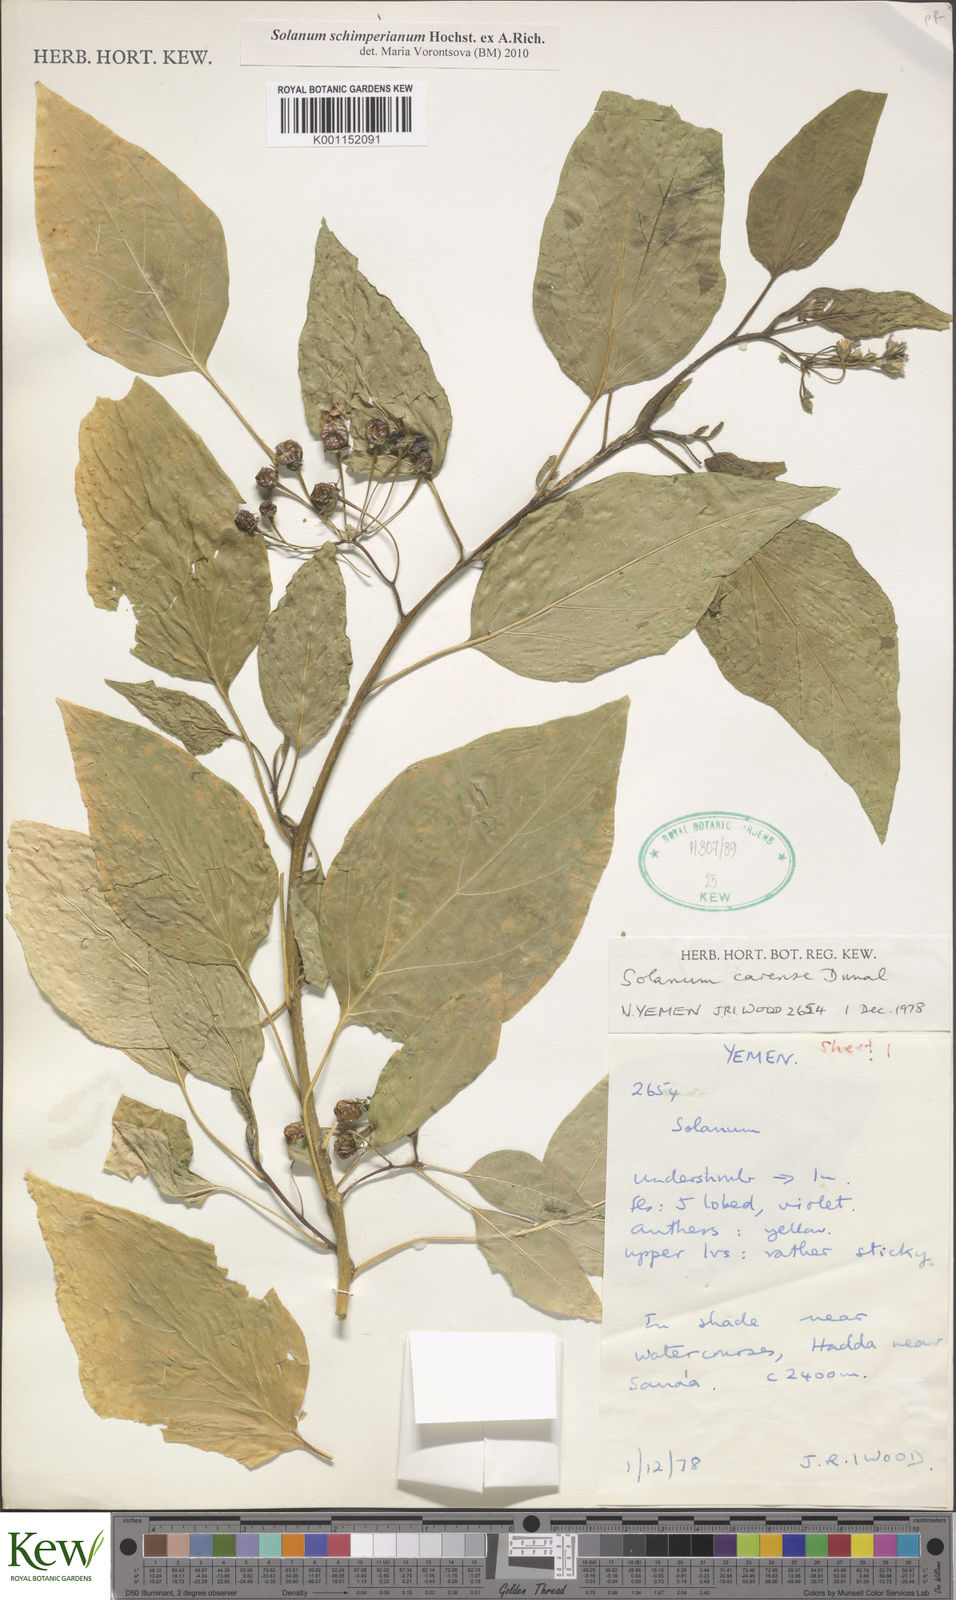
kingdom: Plantae
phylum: Tracheophyta
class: Magnoliopsida
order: Solanales
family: Solanaceae
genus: Solanum
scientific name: Solanum schimperianum
